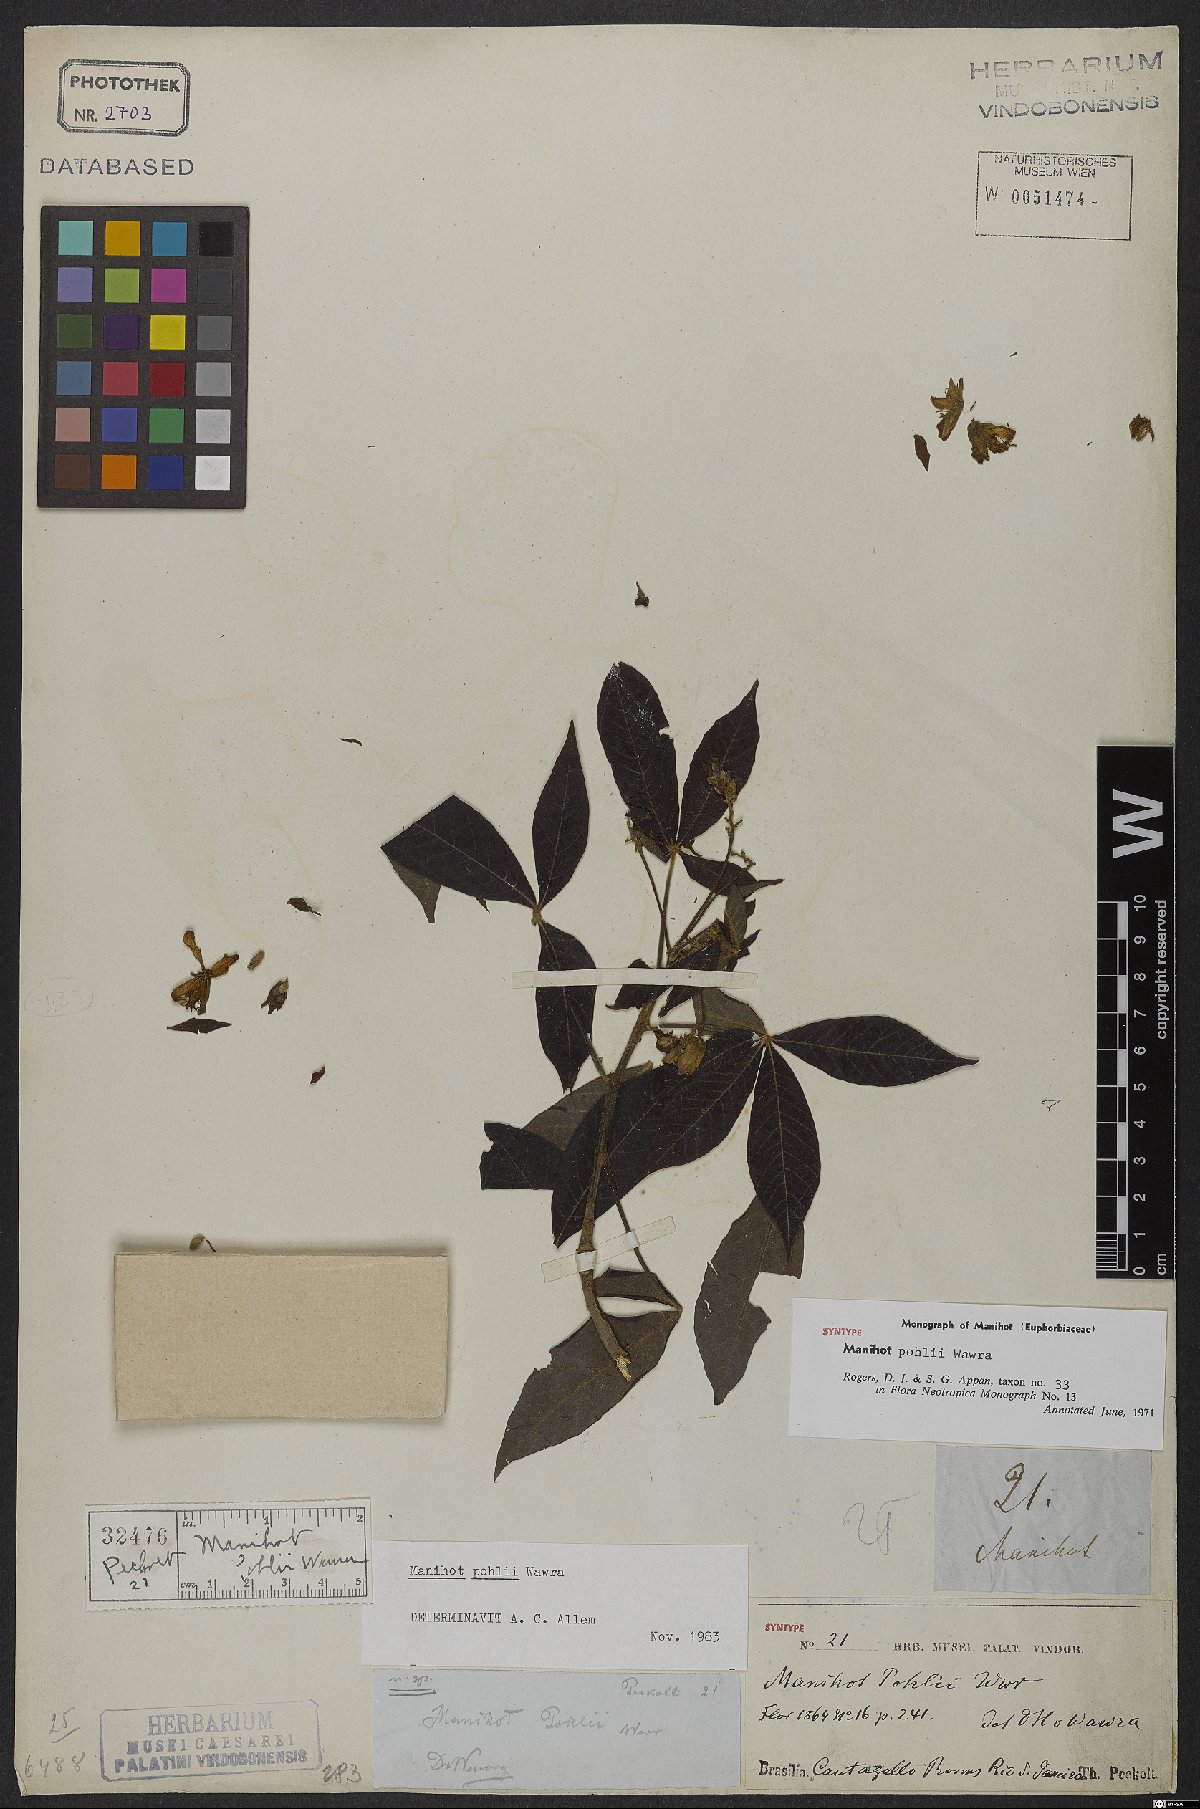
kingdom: Plantae
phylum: Tracheophyta
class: Magnoliopsida
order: Malpighiales
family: Euphorbiaceae
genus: Manihot
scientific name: Manihot pohlii
